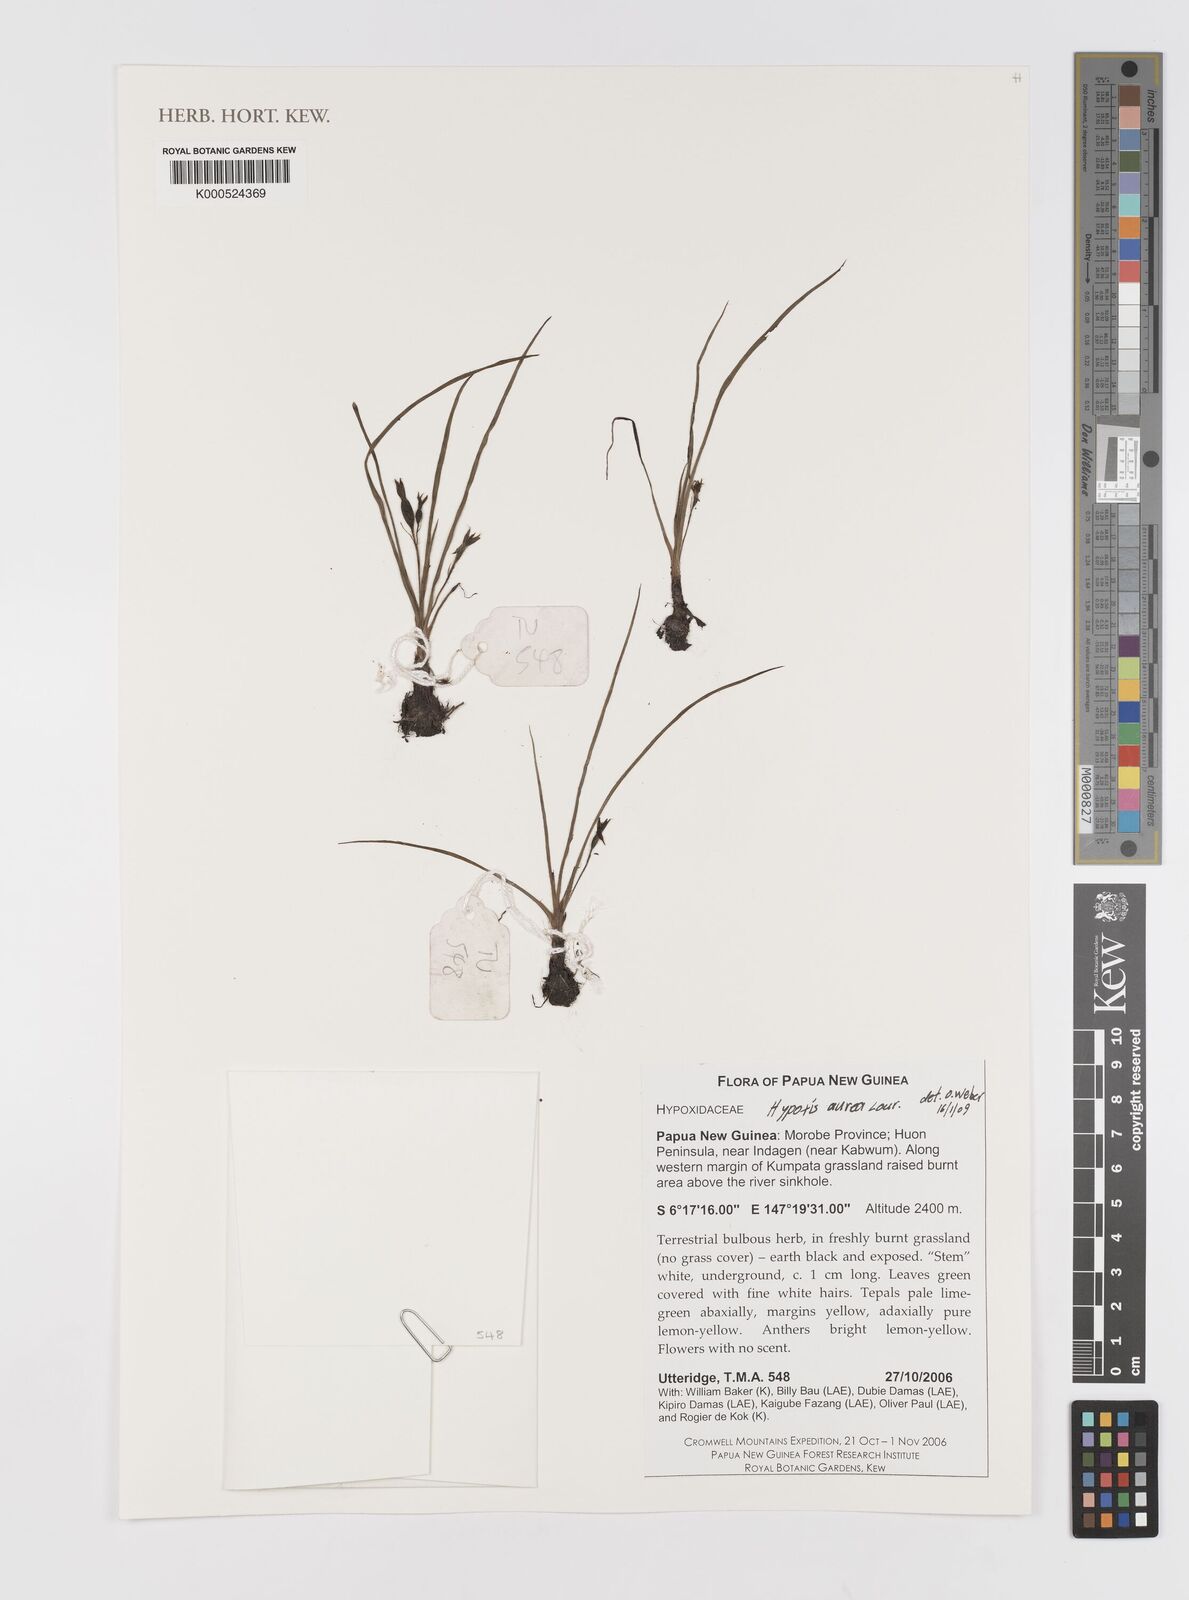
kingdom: Plantae
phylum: Tracheophyta
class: Liliopsida
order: Asparagales
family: Hypoxidaceae
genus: Hypoxis
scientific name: Hypoxis aurea
